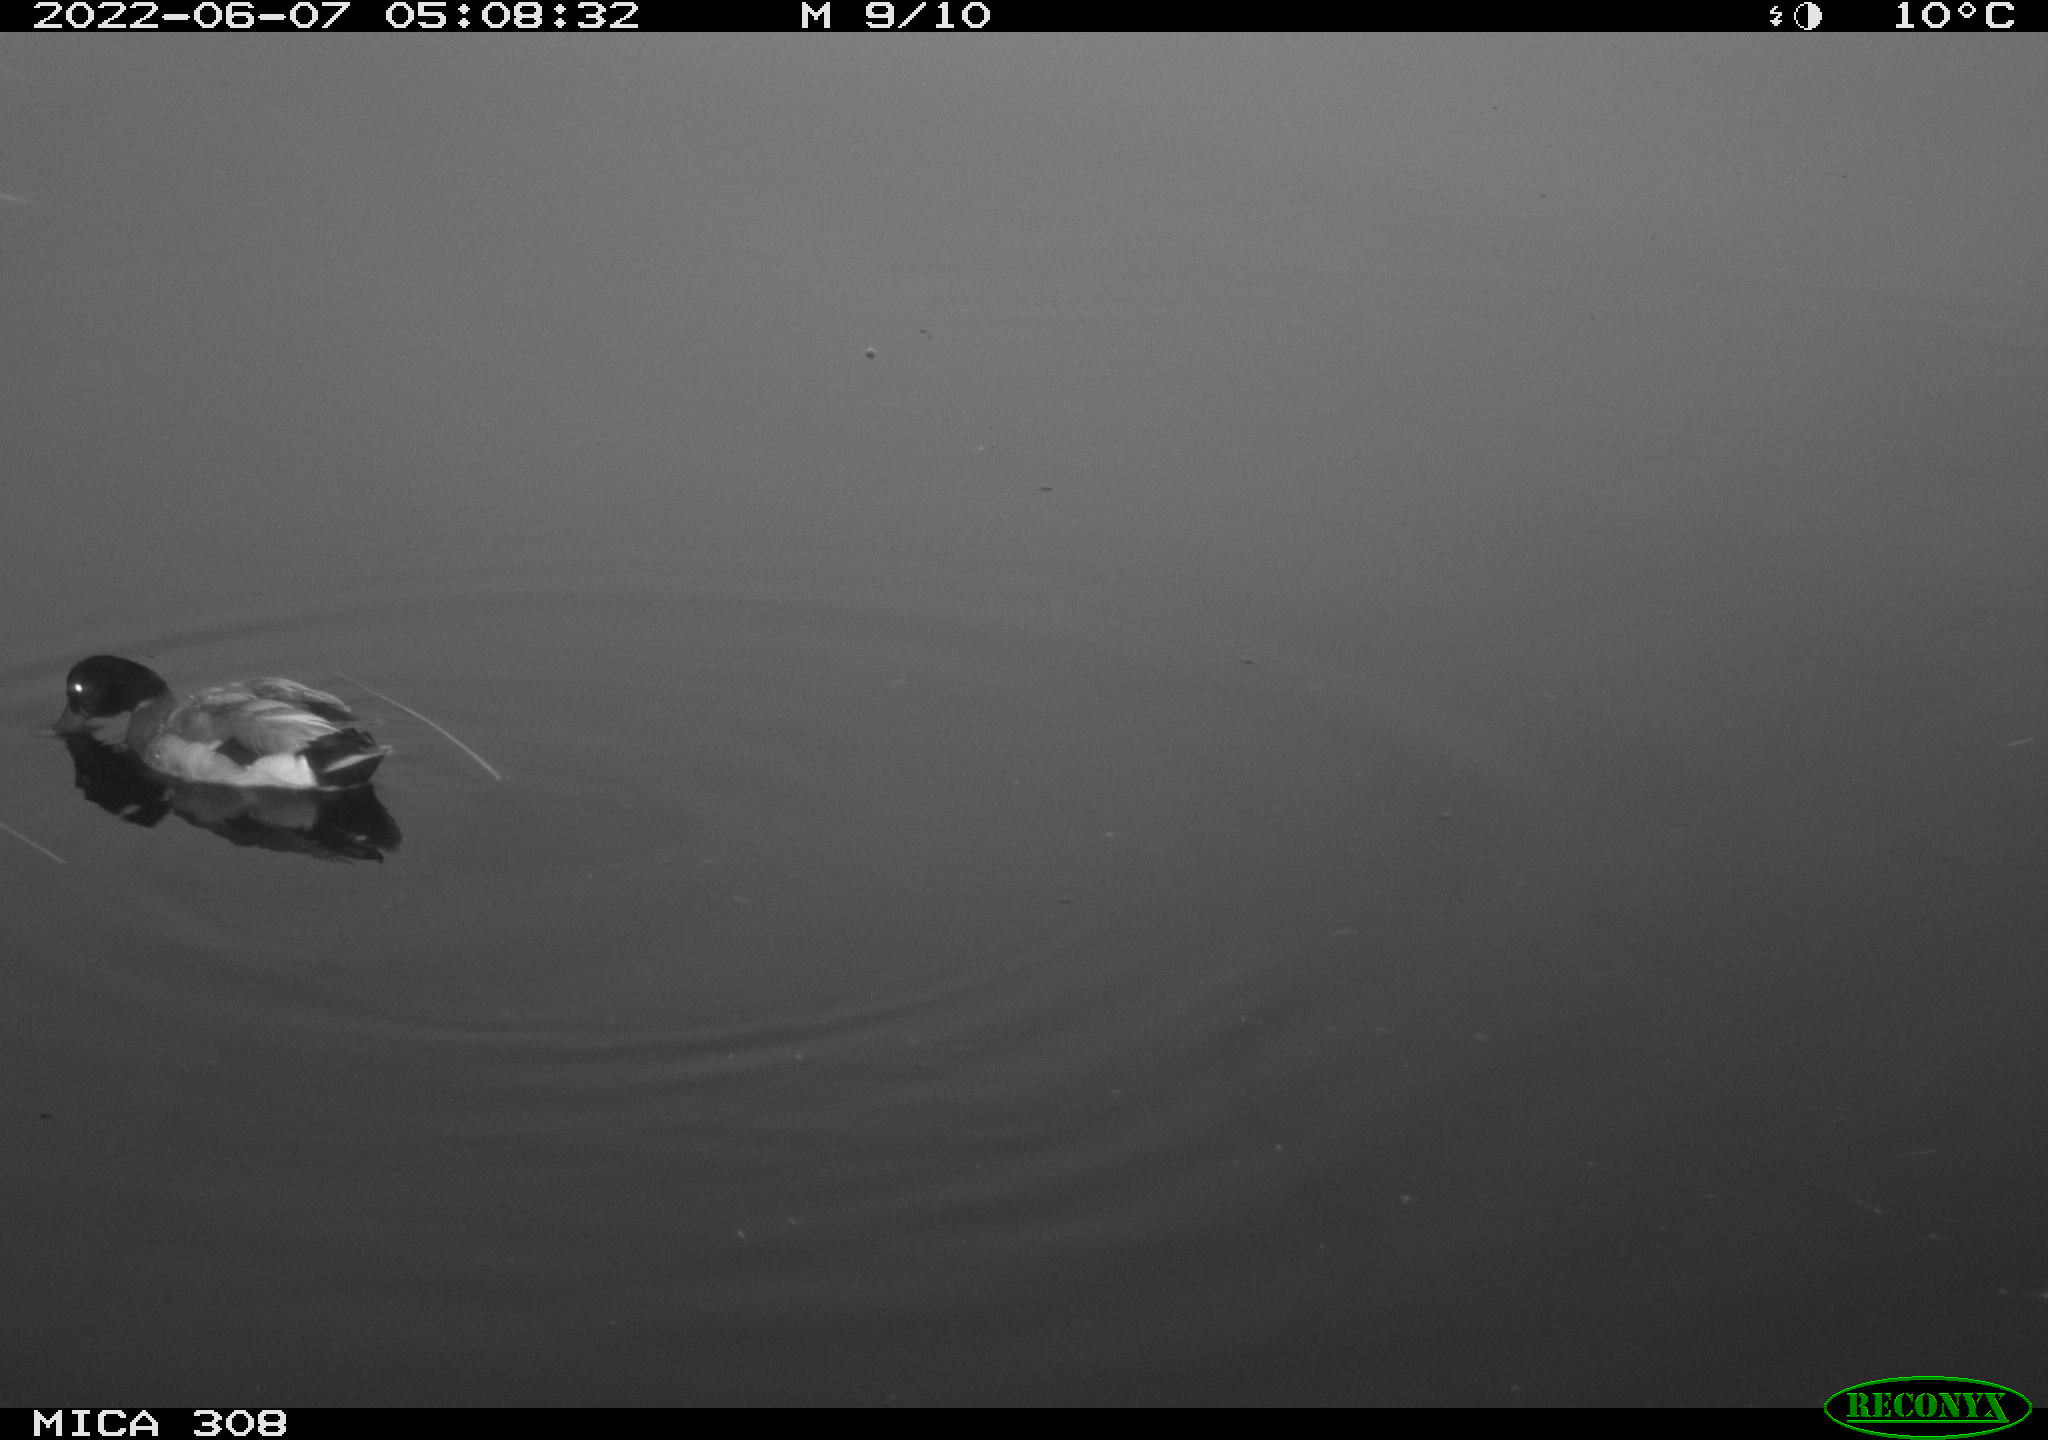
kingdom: Animalia
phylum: Chordata
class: Aves
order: Anseriformes
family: Anatidae
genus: Anas
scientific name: Anas platyrhynchos
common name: Mallard
